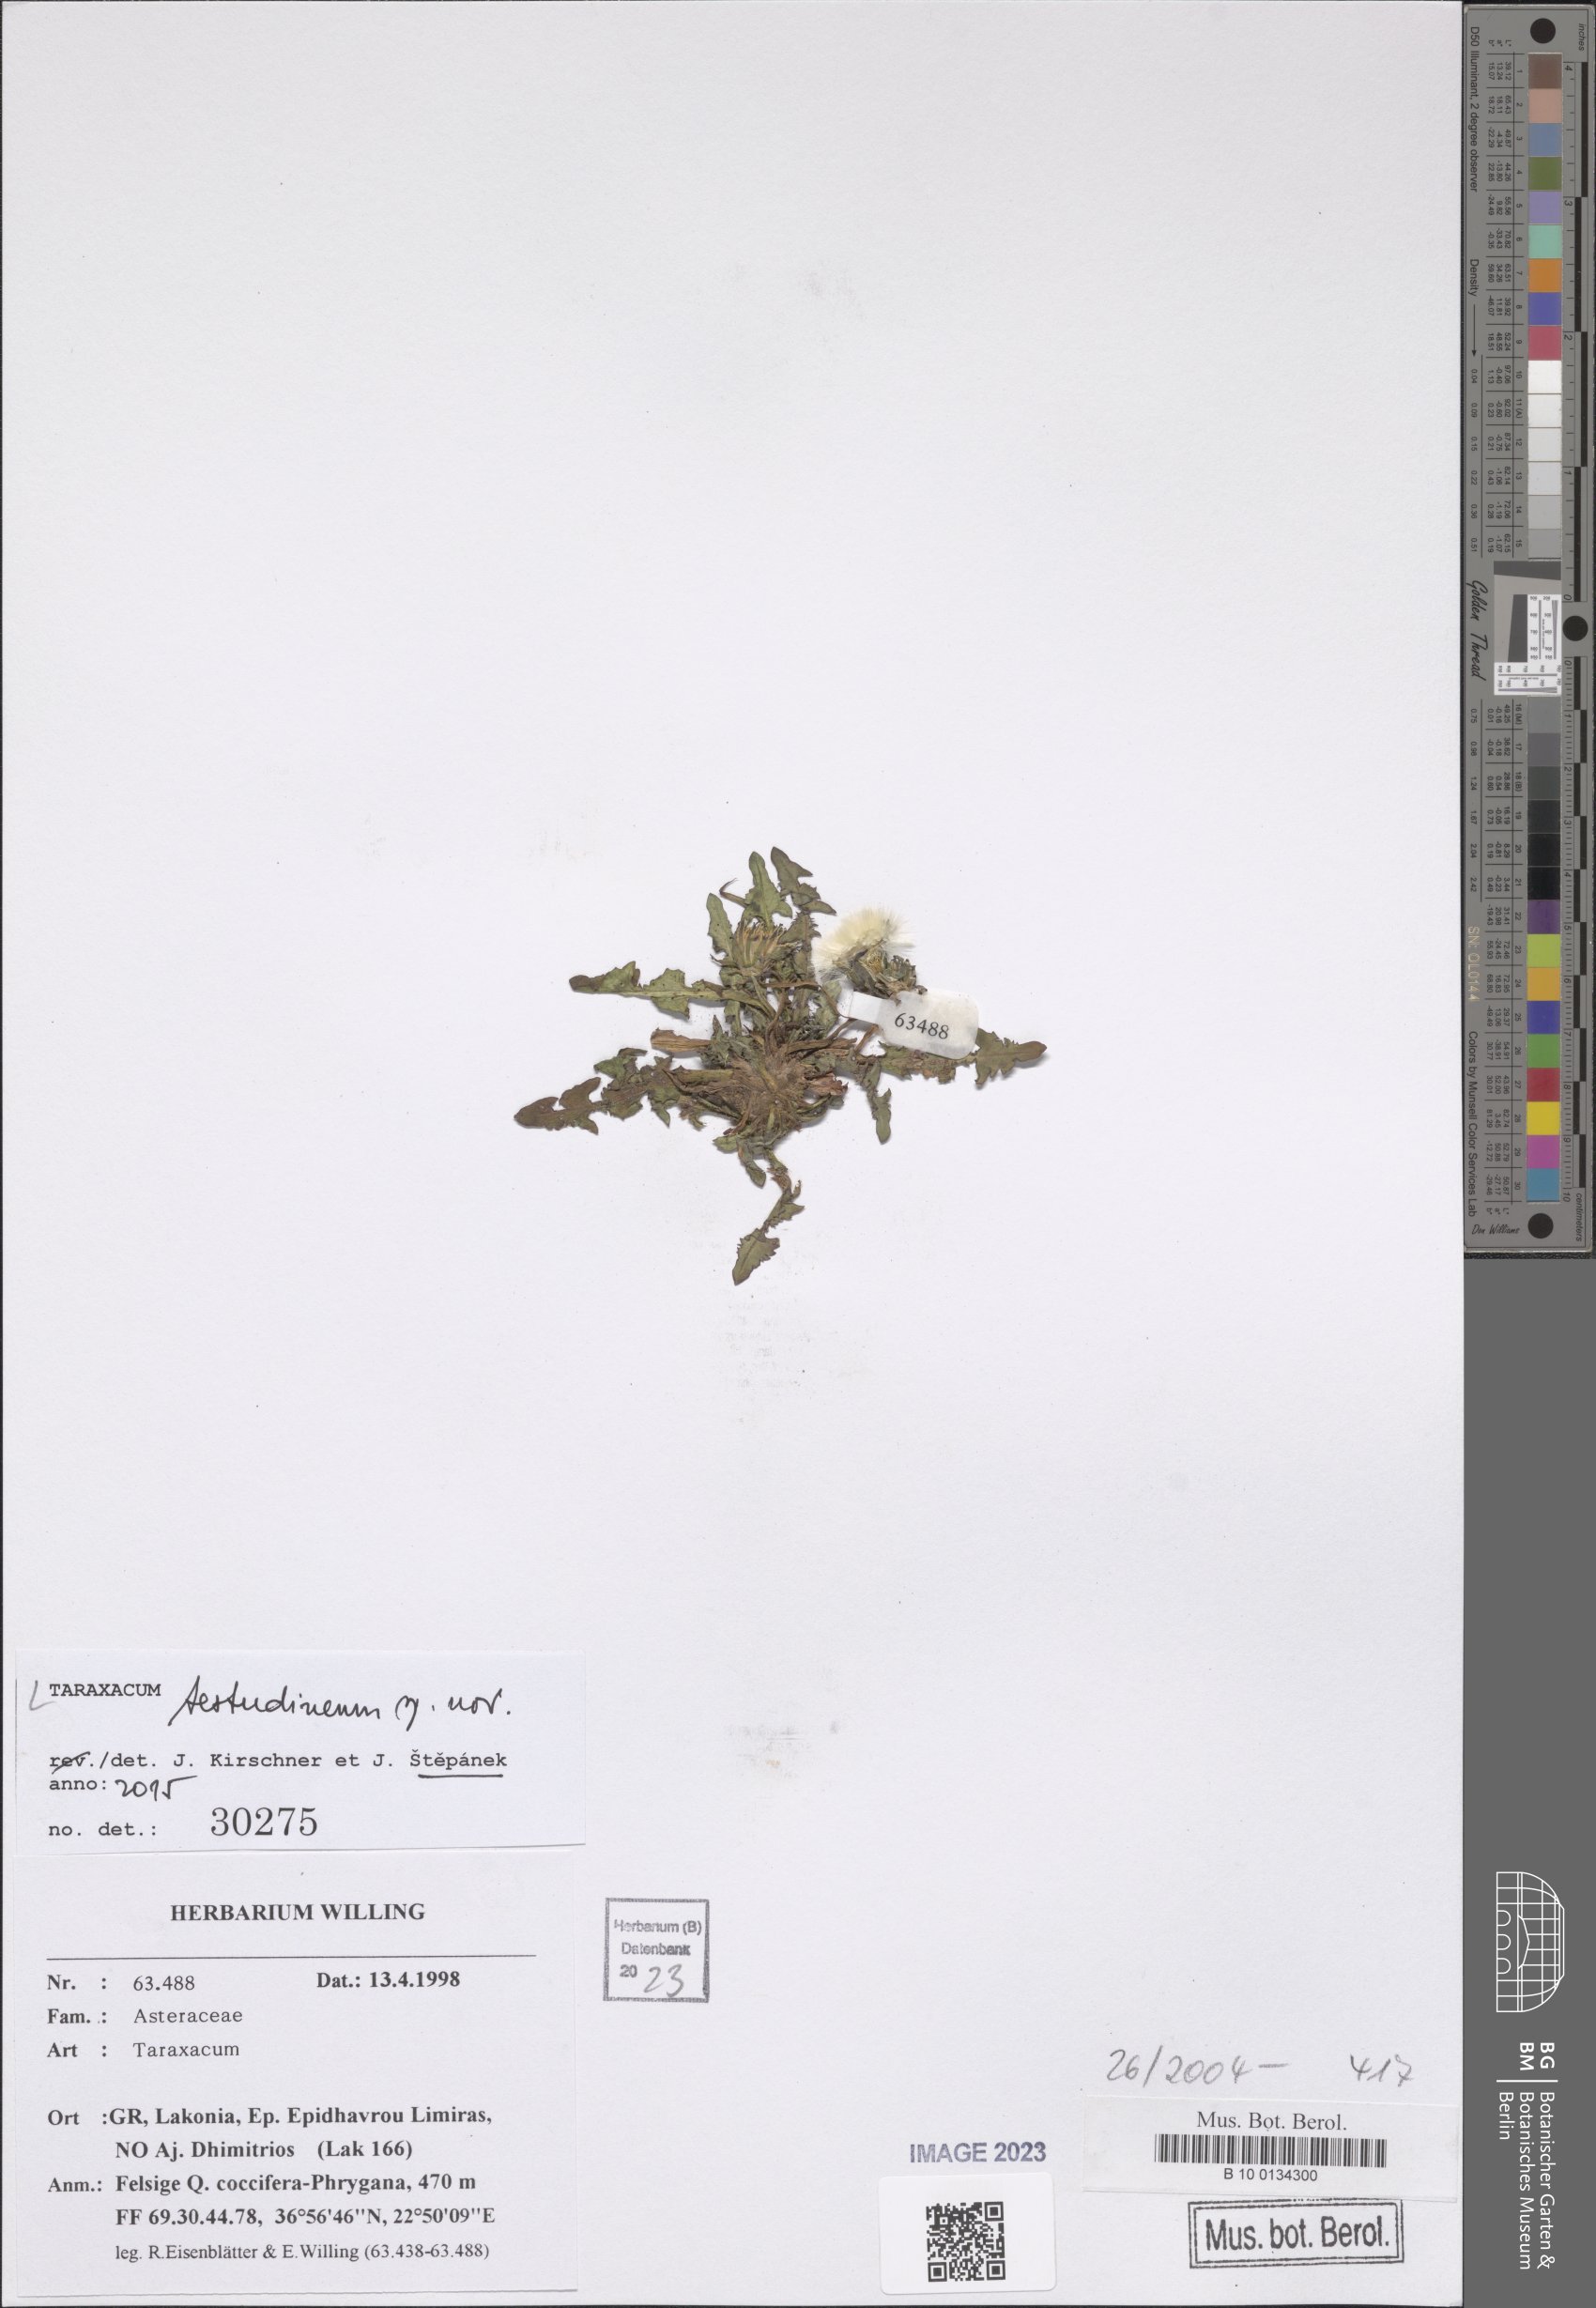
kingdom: Plantae
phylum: Tracheophyta
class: Magnoliopsida
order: Asterales
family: Asteraceae
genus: Taraxacum
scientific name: Taraxacum
